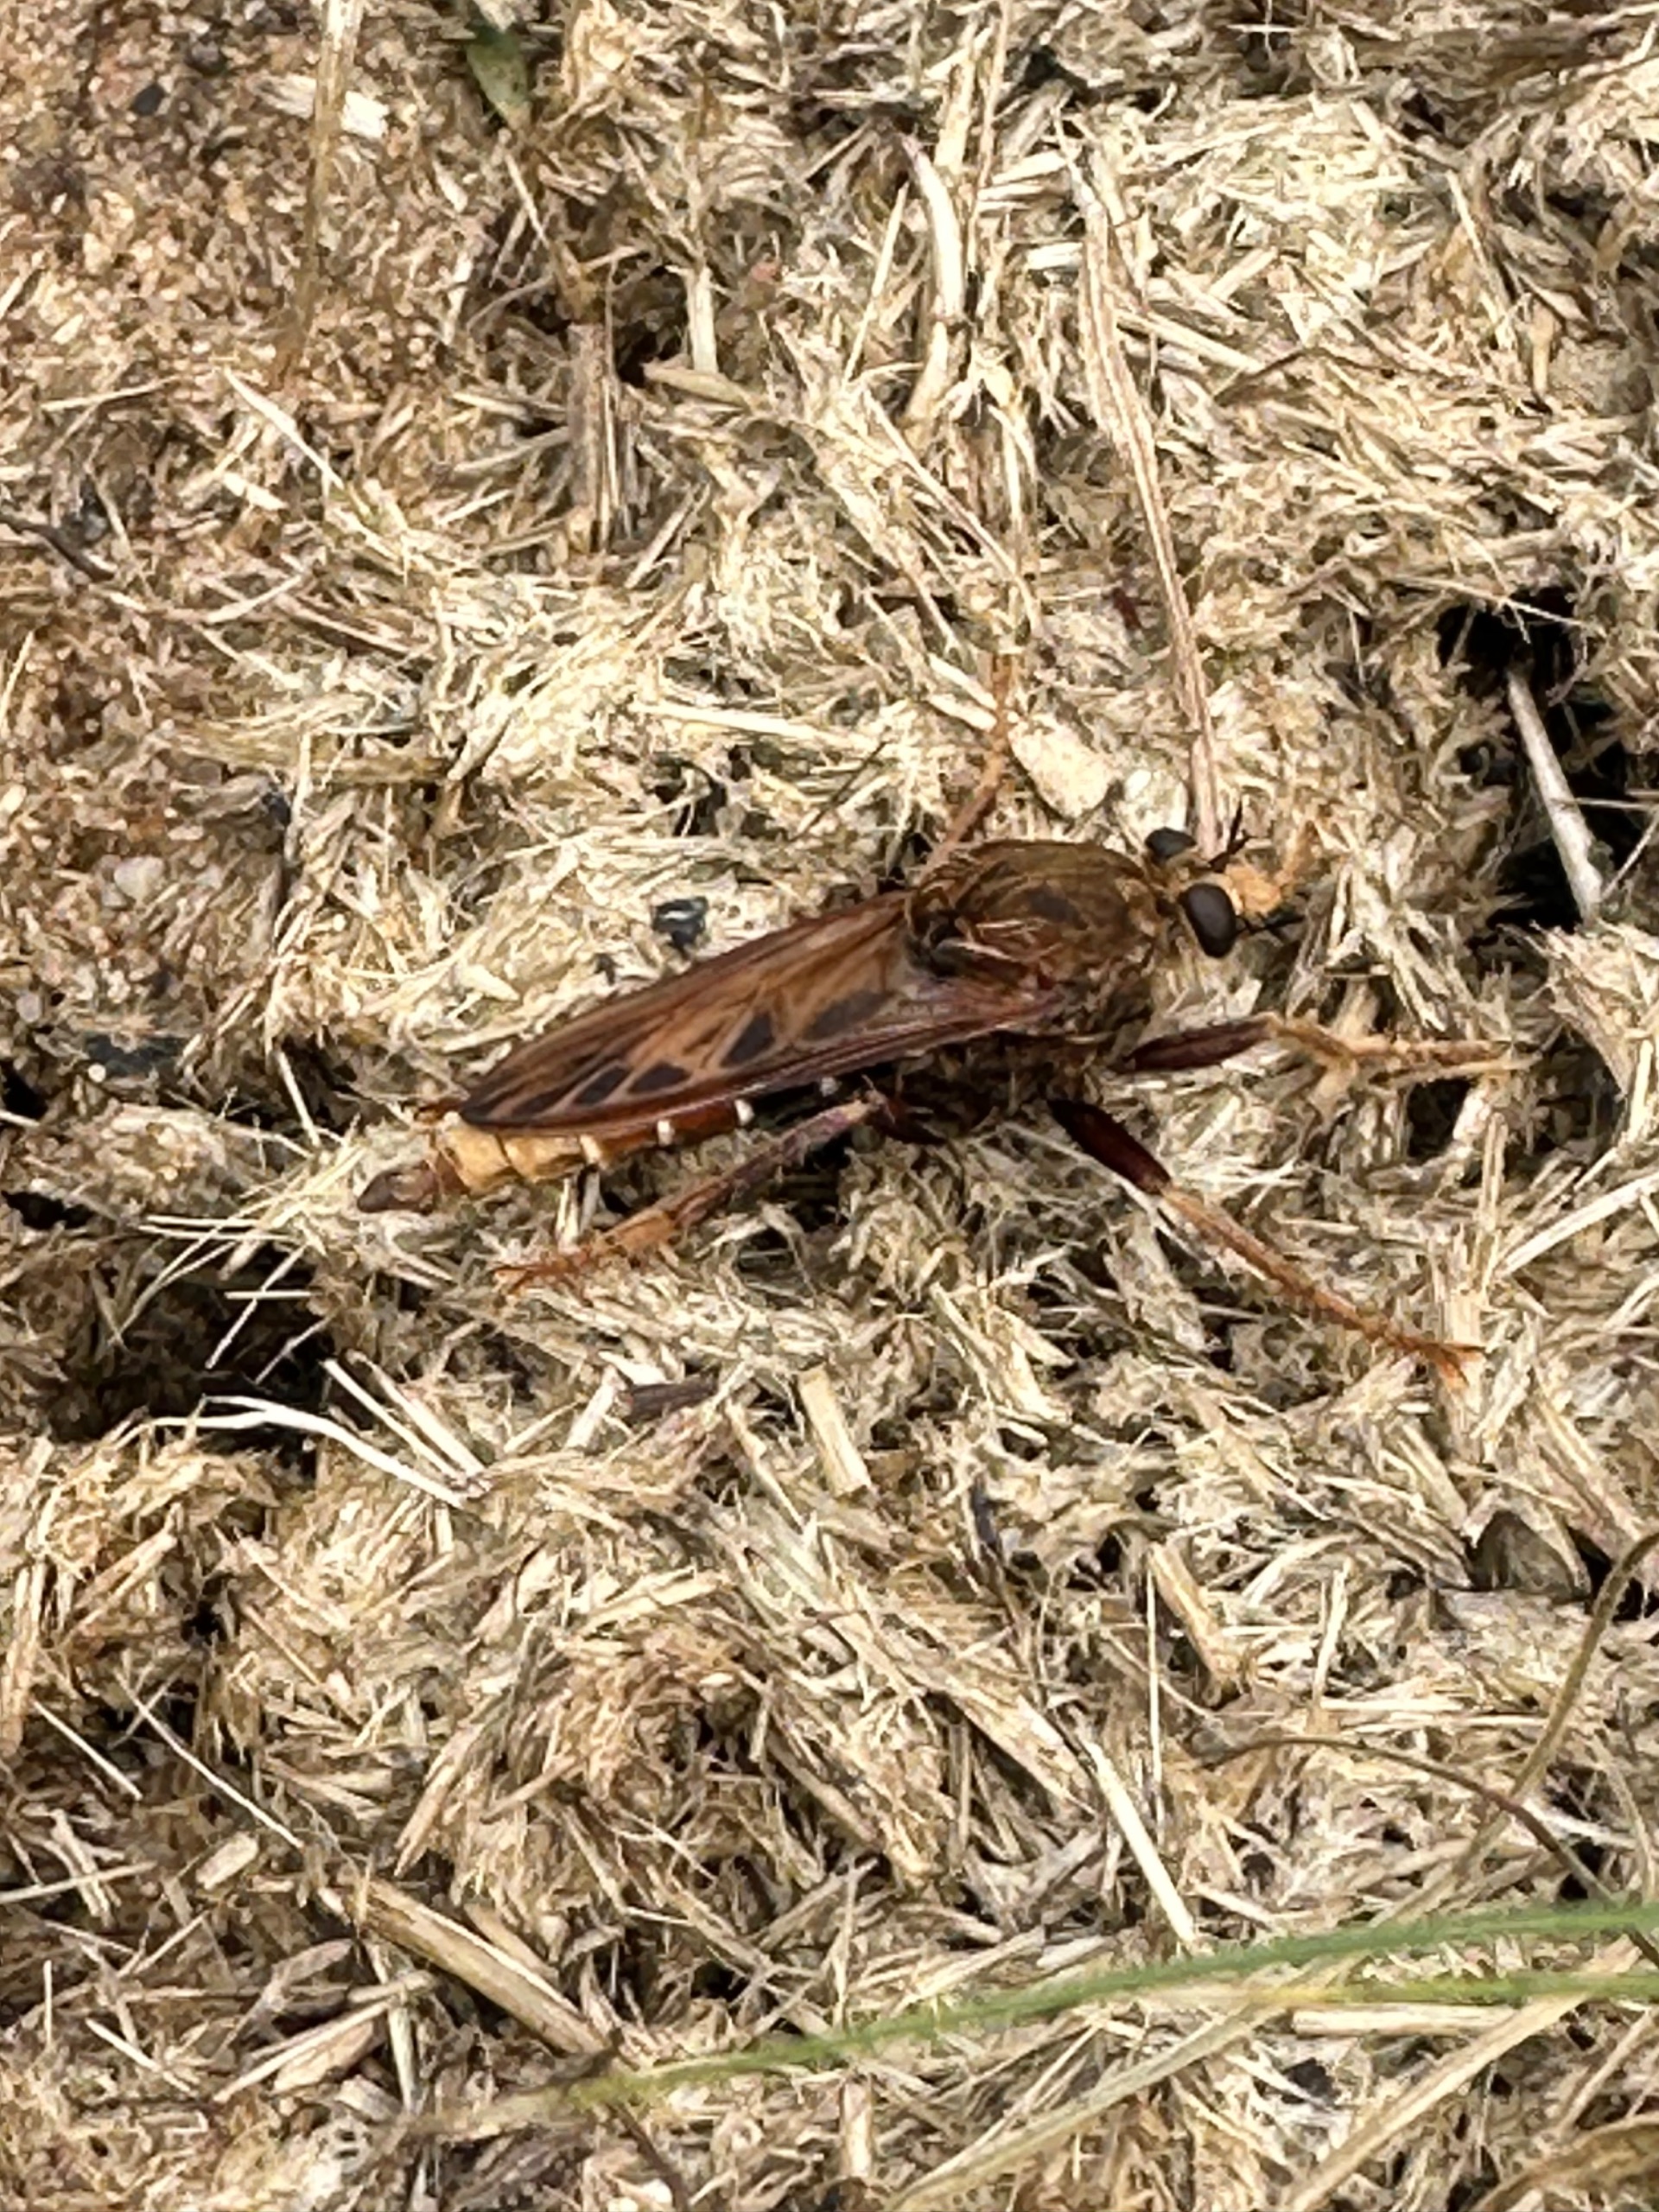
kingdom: Animalia
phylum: Arthropoda
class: Insecta
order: Diptera
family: Asilidae
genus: Asilus
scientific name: Asilus crabroniformis
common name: Stor gødningsrovflue
